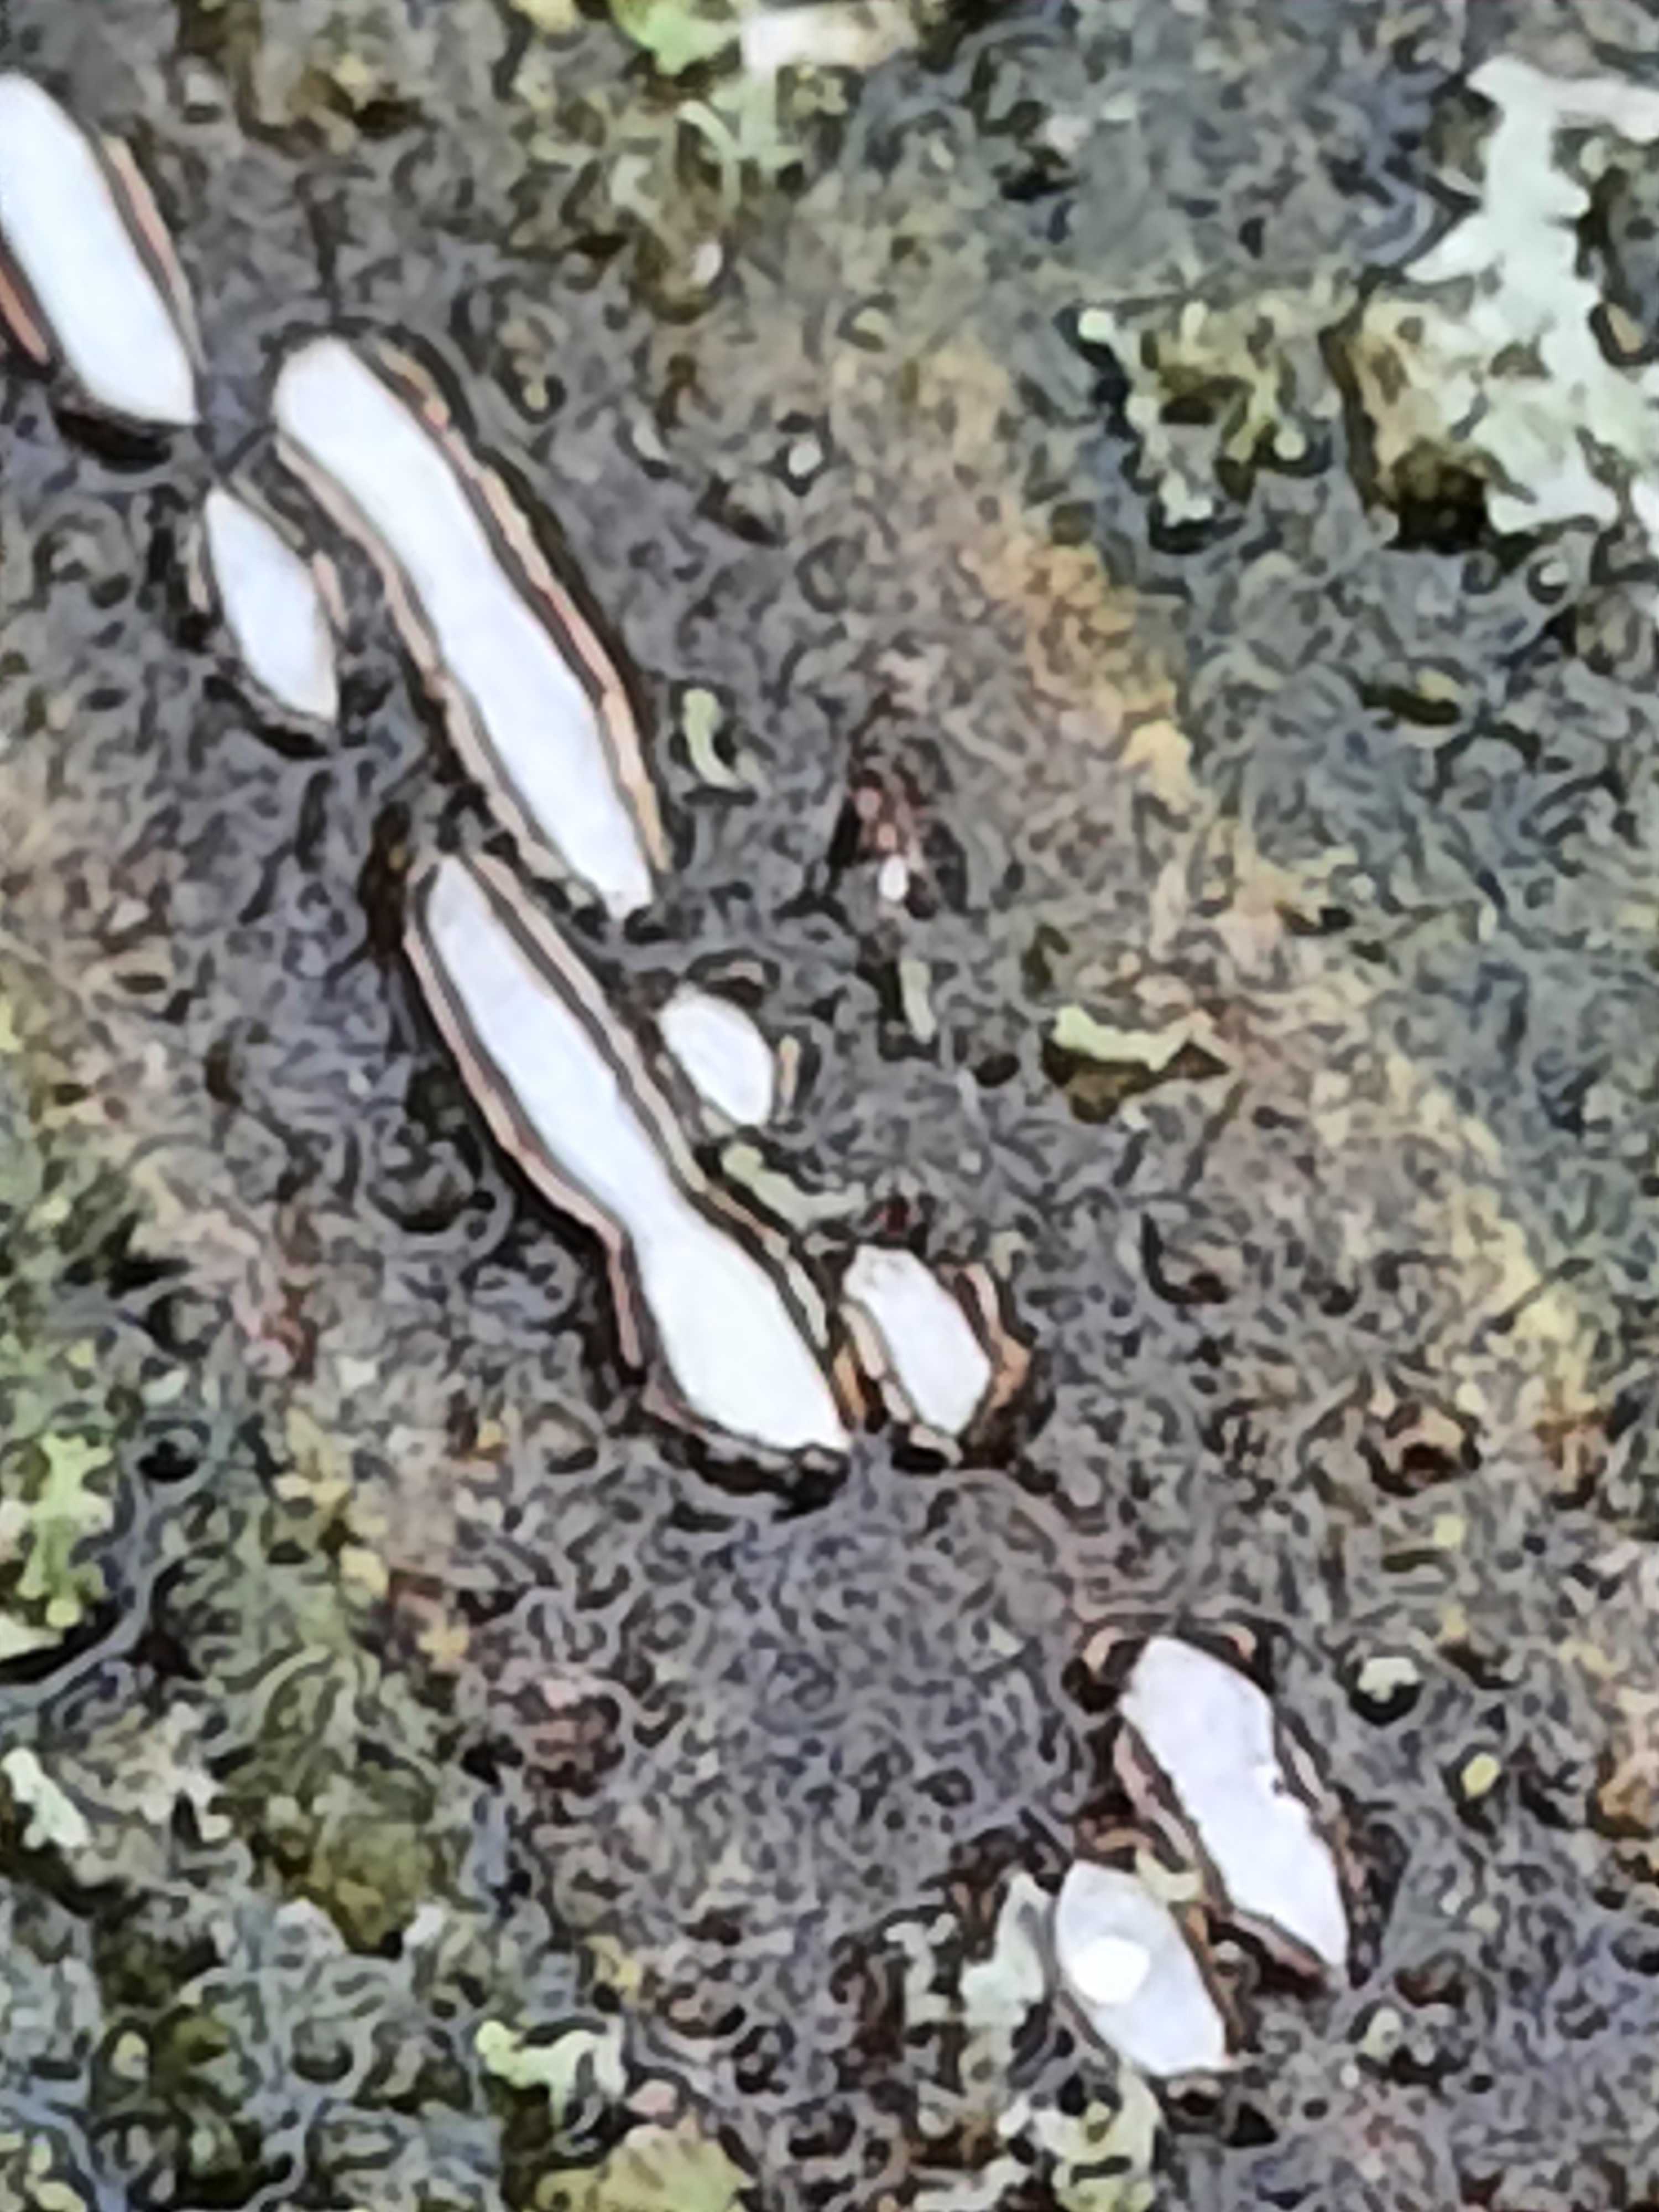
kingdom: Fungi
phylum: Ascomycota
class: Leotiomycetes
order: Chaetomellales
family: Marthamycetaceae
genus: Propolis
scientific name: Propolis farinosa
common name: almindelig vedsprængerskive
